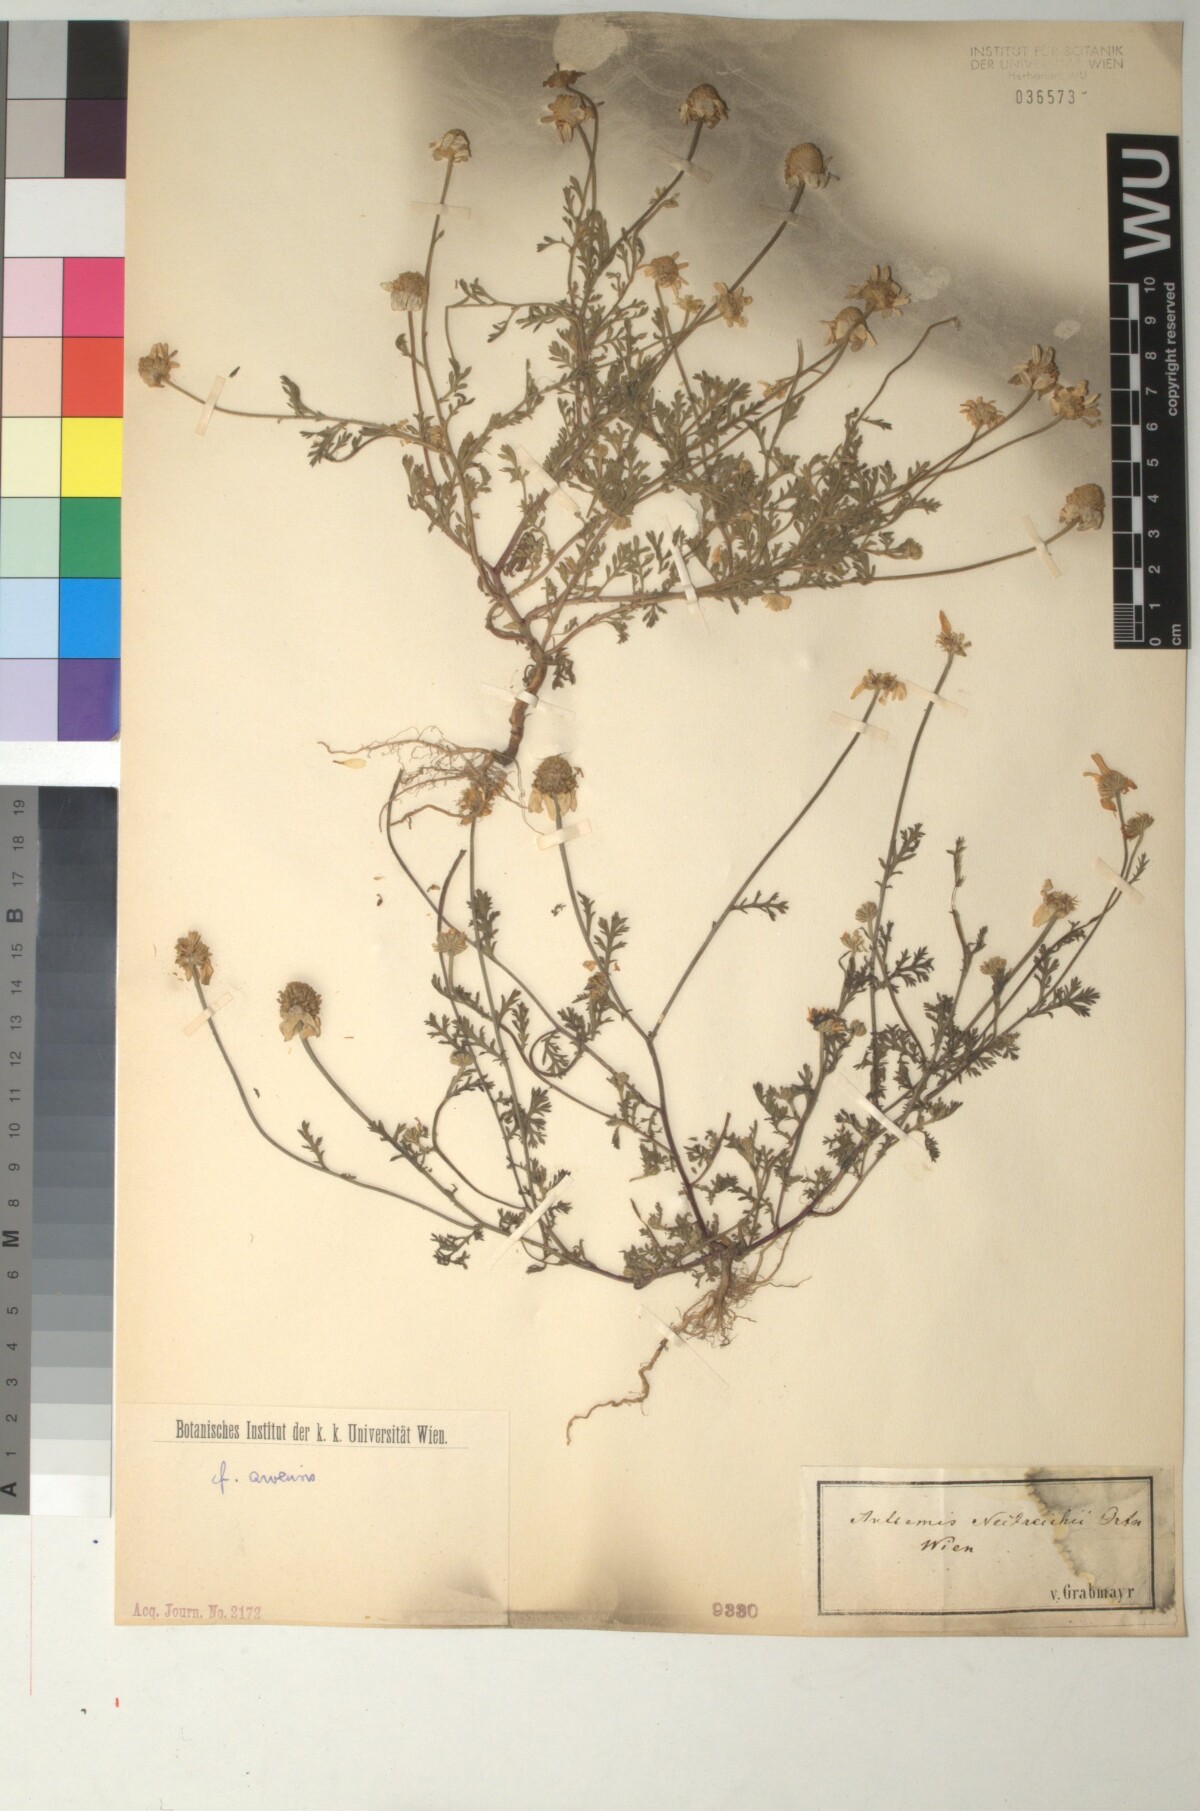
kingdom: Plantae
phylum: Tracheophyta
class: Magnoliopsida
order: Asterales
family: Asteraceae
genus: Anthemis
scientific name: Anthemis ruthenica
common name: Eastern chamomile
